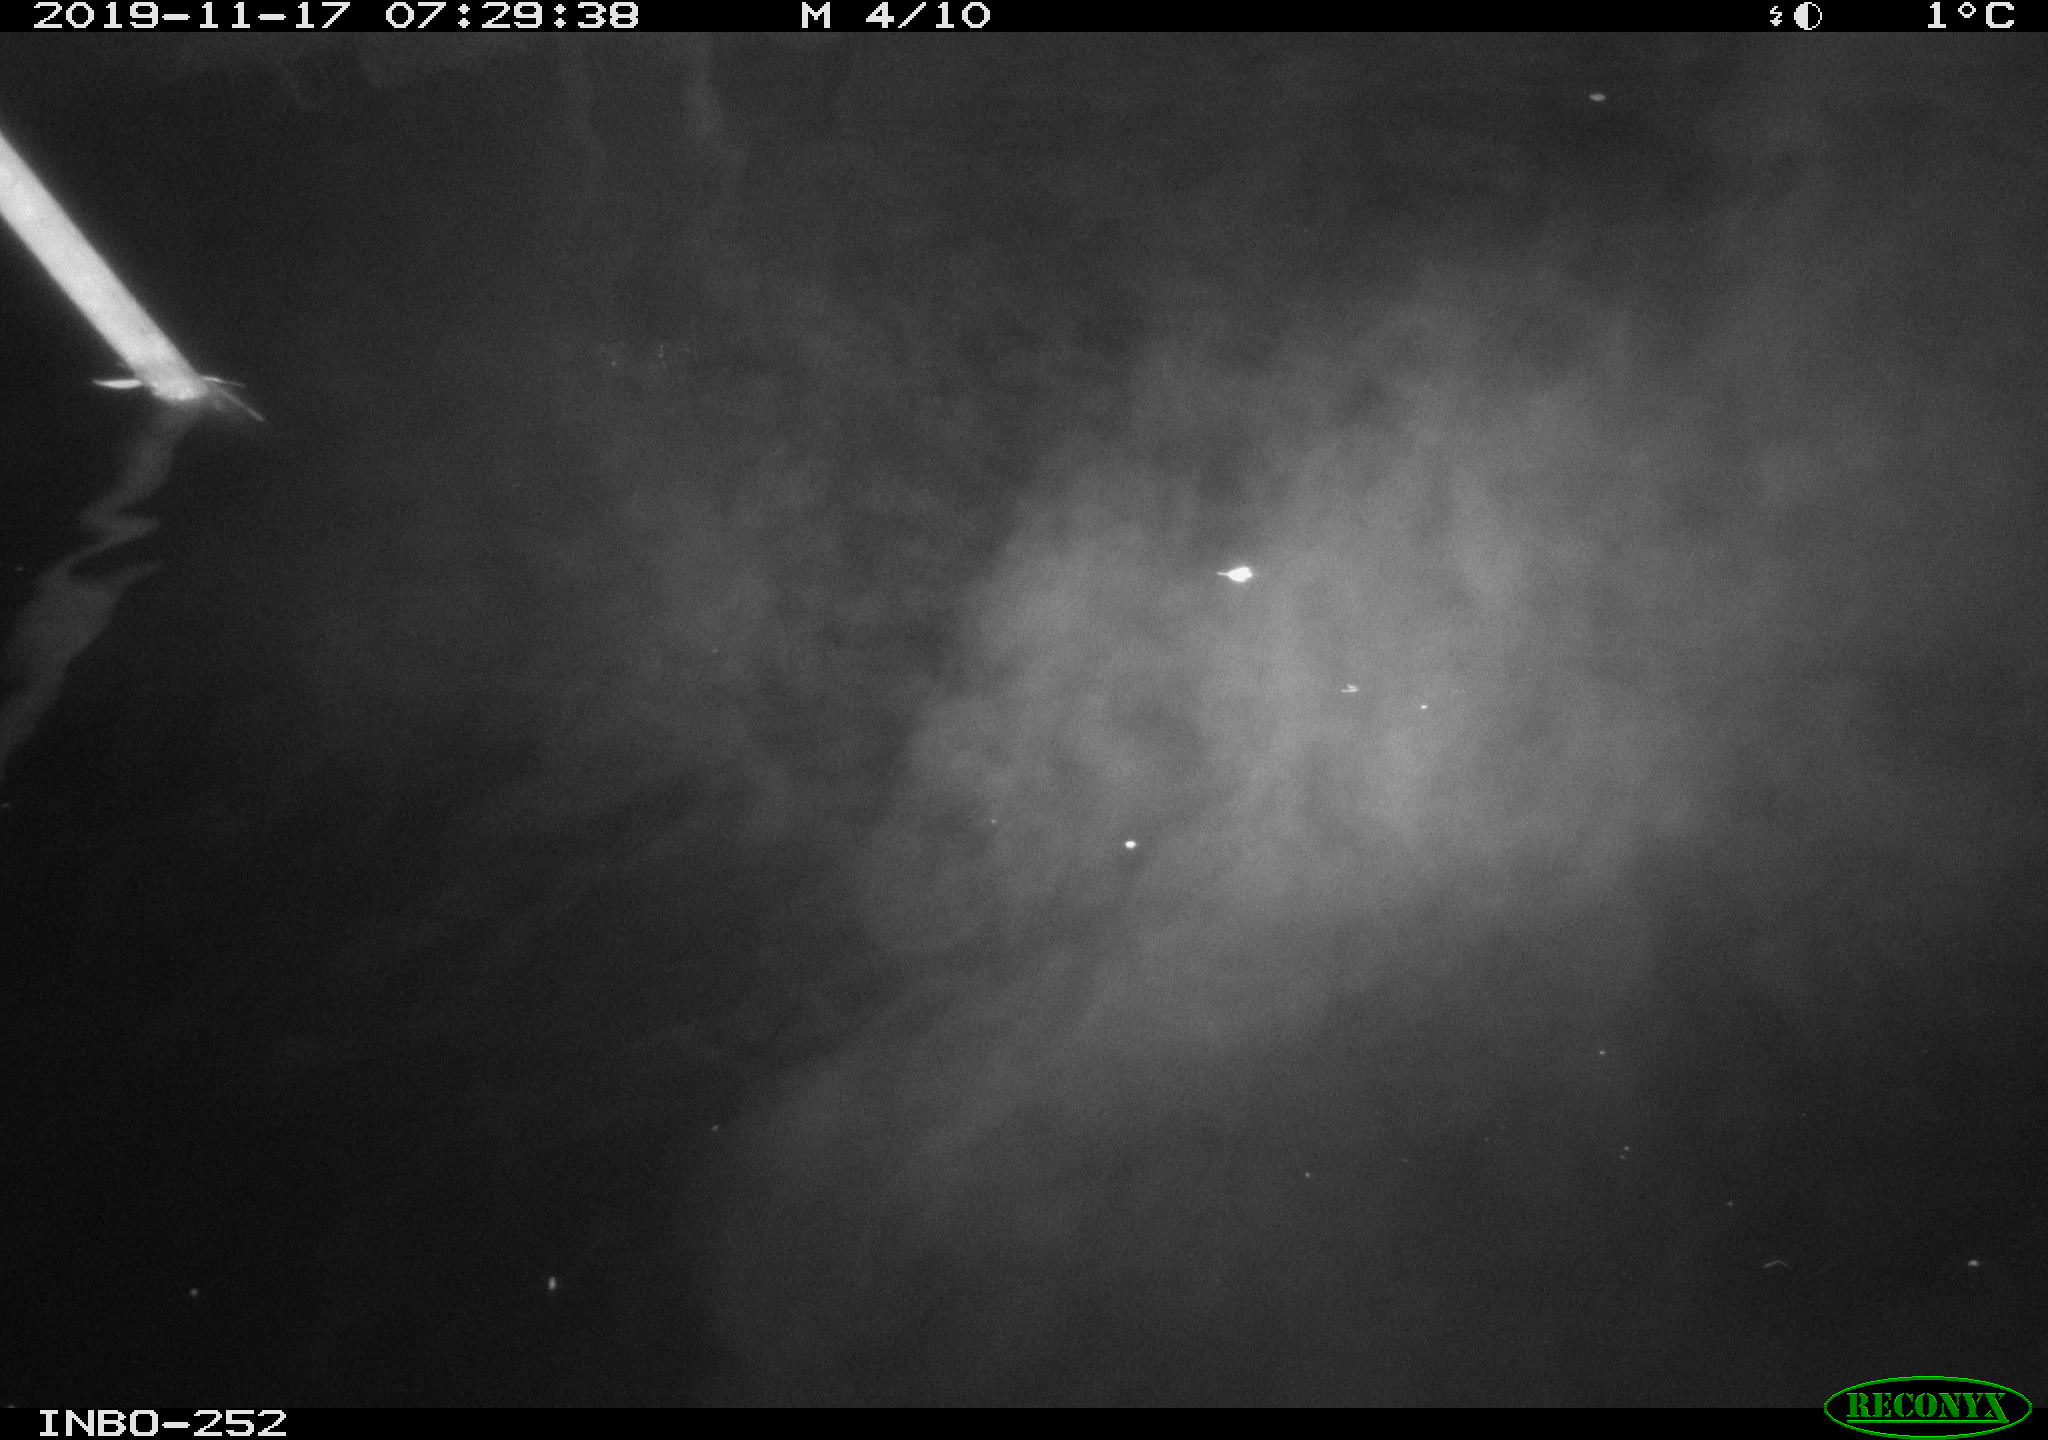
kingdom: Animalia
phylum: Chordata
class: Aves
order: Anseriformes
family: Anatidae
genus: Anas
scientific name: Anas platyrhynchos
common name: Mallard
